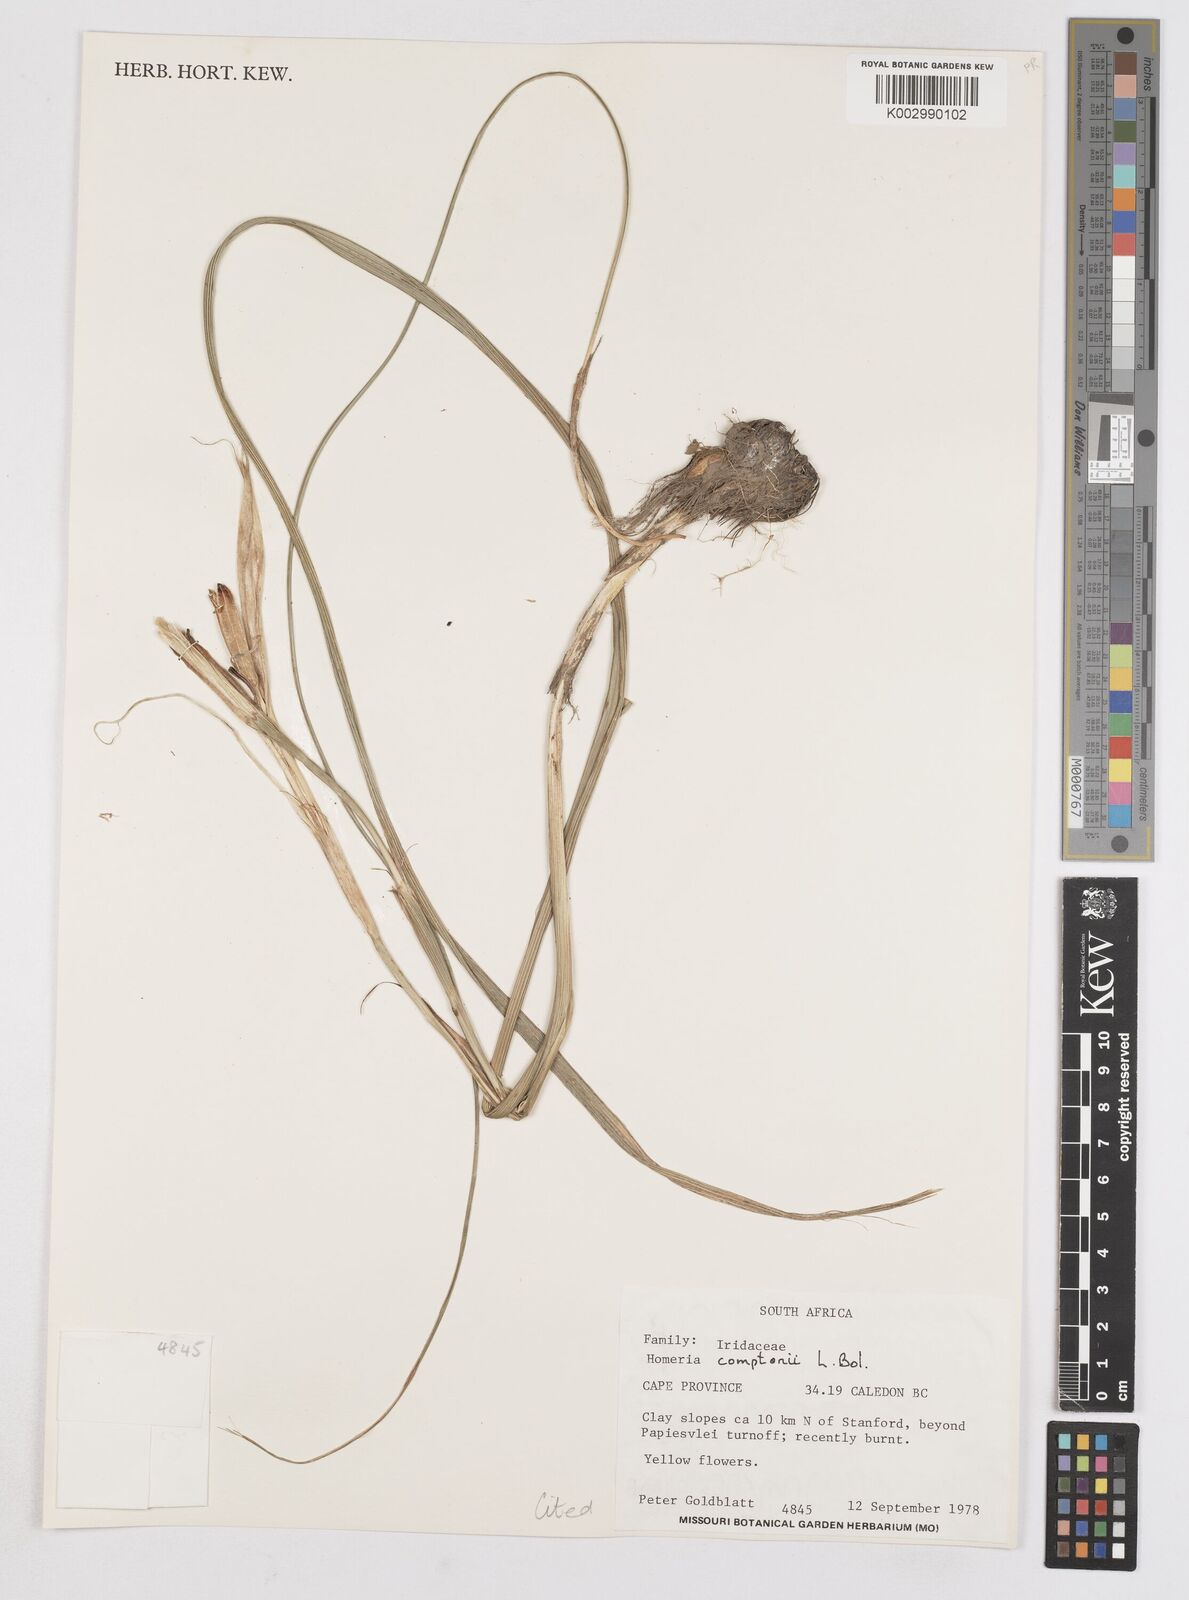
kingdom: Plantae
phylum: Tracheophyta
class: Liliopsida
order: Asparagales
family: Iridaceae
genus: Moraea
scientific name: Moraea comptonii
